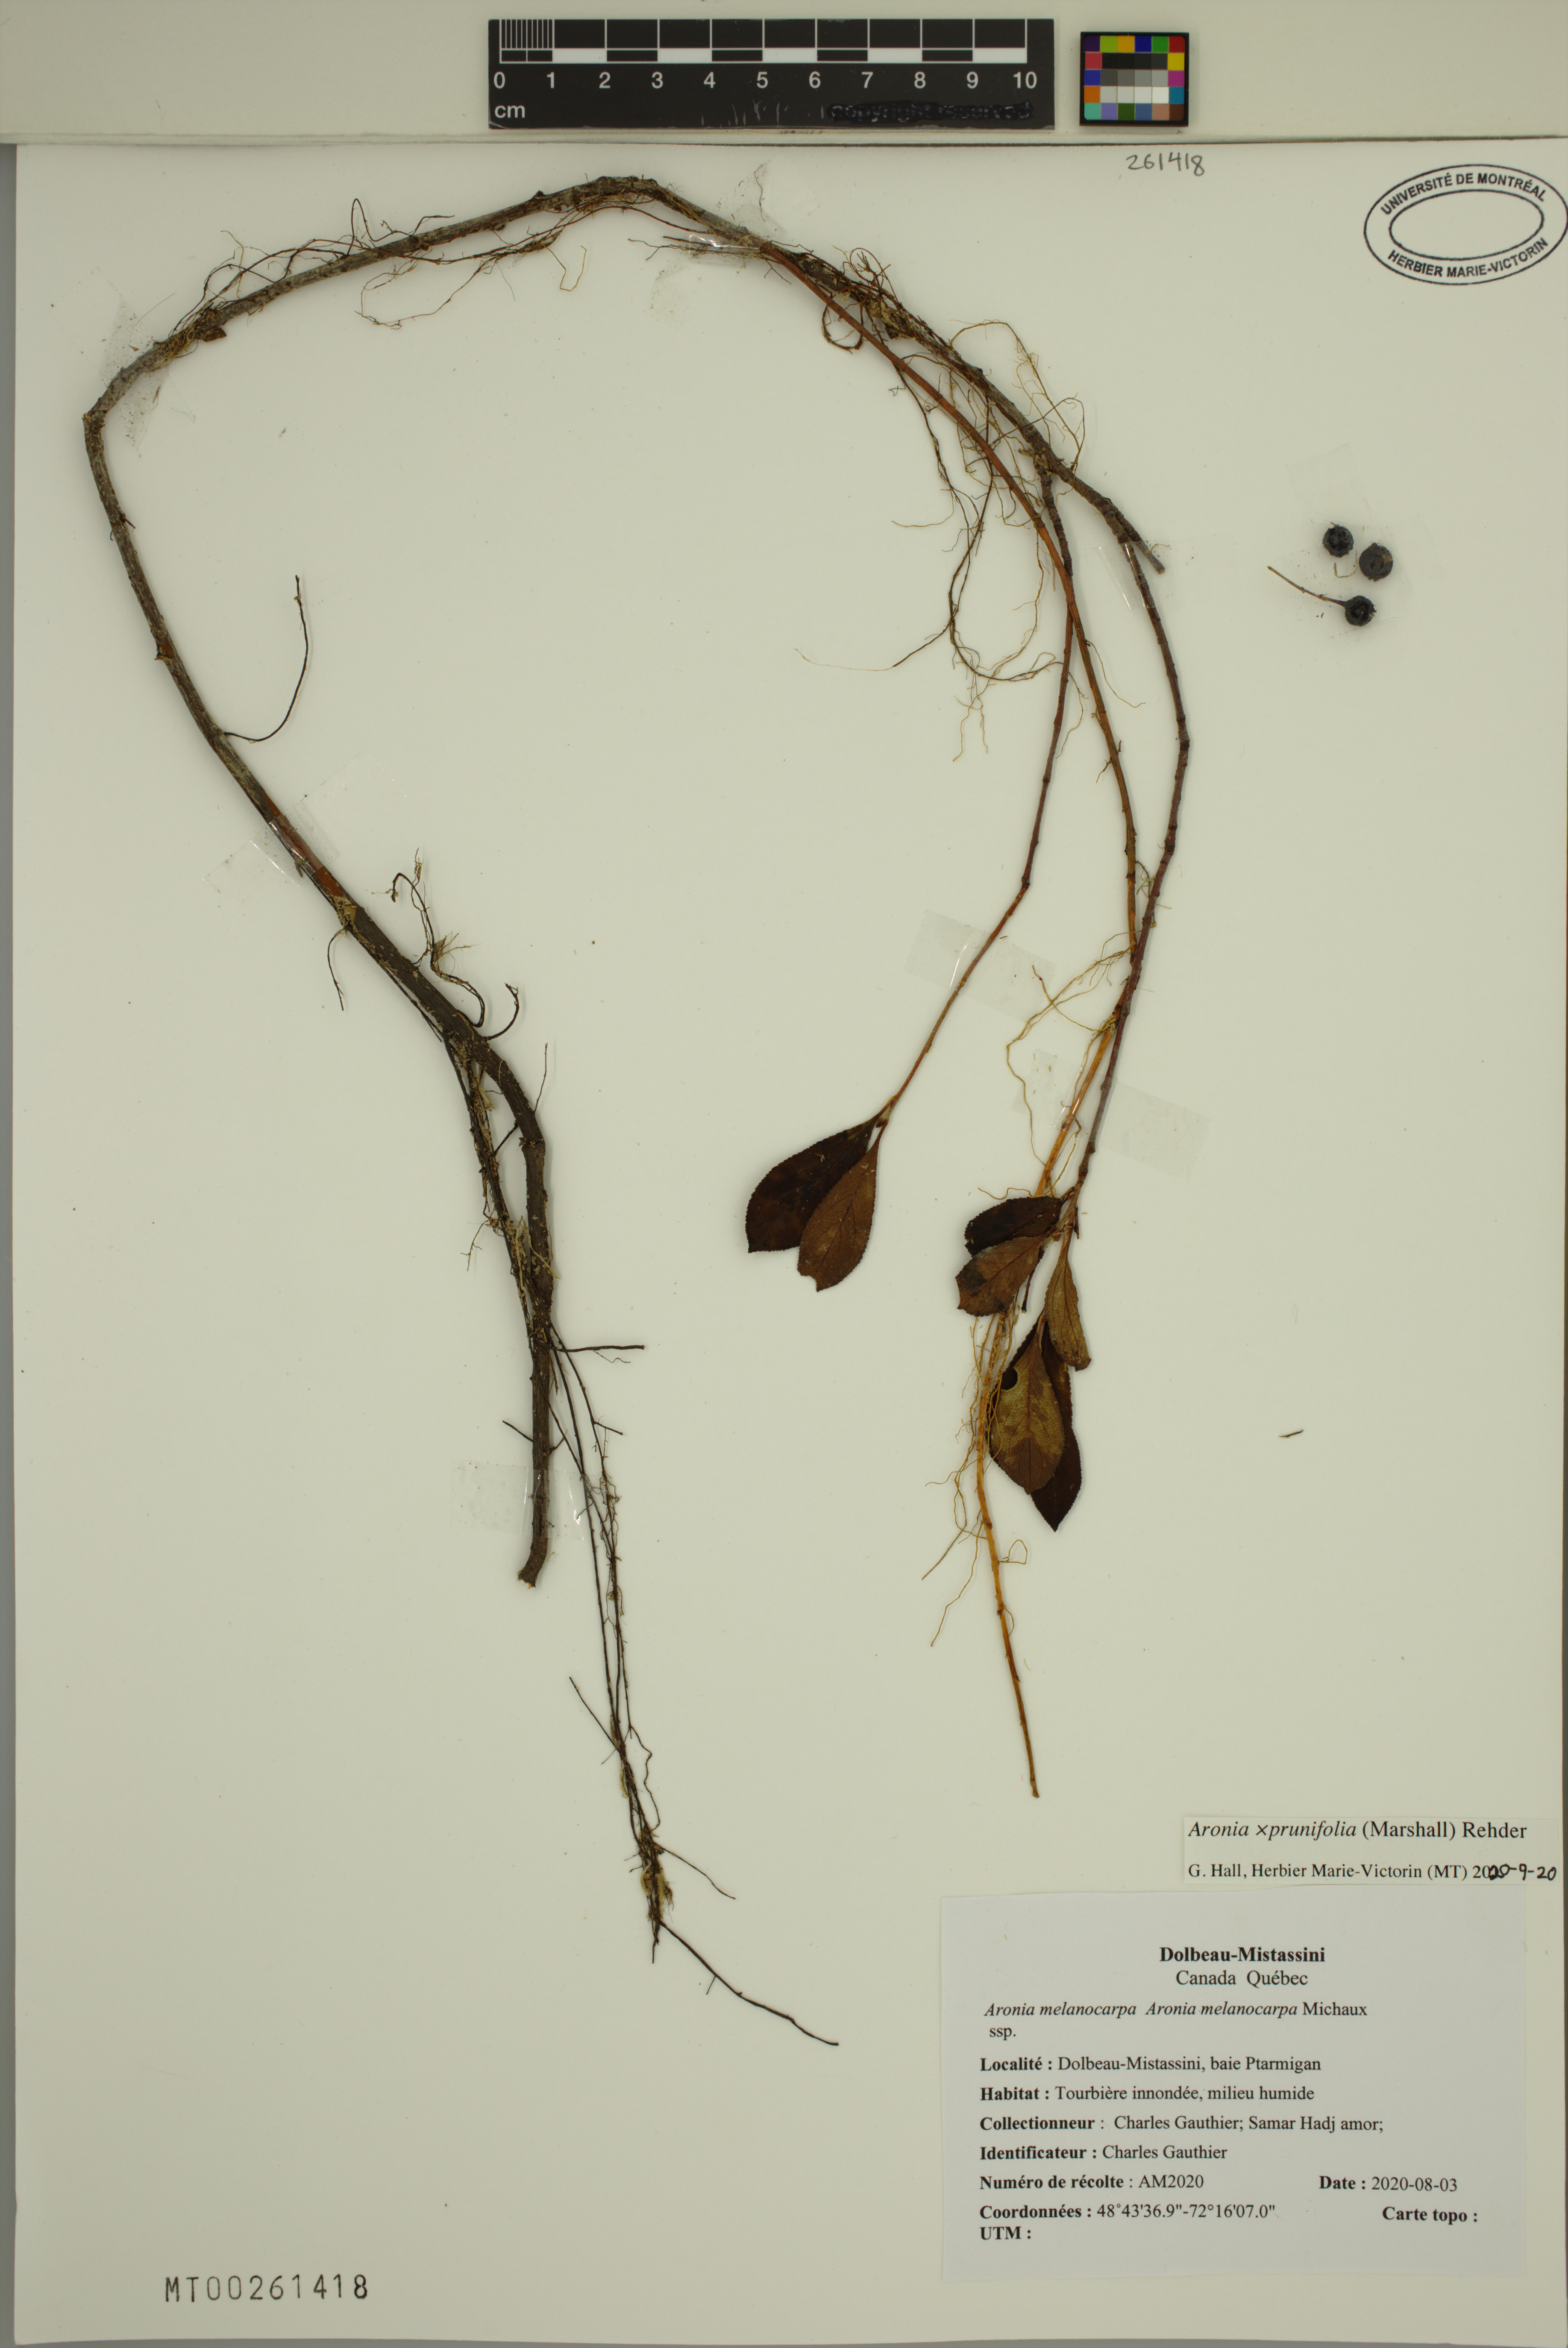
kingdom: Plantae
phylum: Tracheophyta
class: Magnoliopsida
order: Rosales
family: Rosaceae
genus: Aronia
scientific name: Aronia prunifolia
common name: Purple chokeberry
